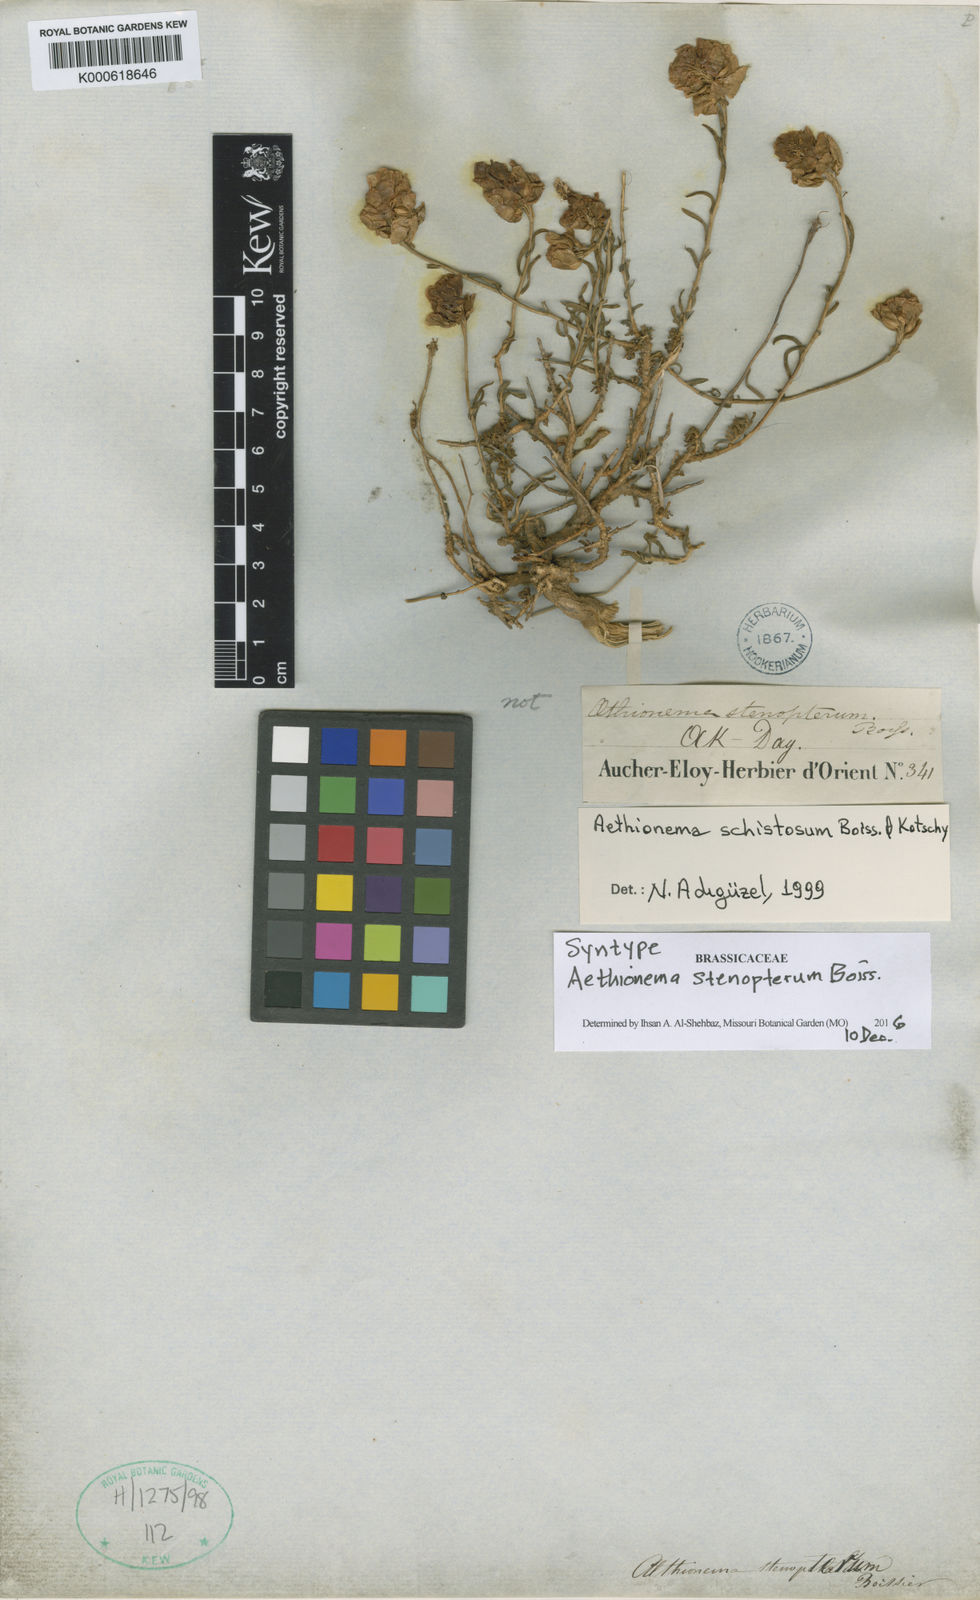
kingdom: Plantae
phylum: Tracheophyta
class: Magnoliopsida
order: Brassicales
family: Brassicaceae
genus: Aethionema
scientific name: Aethionema stenopterum
